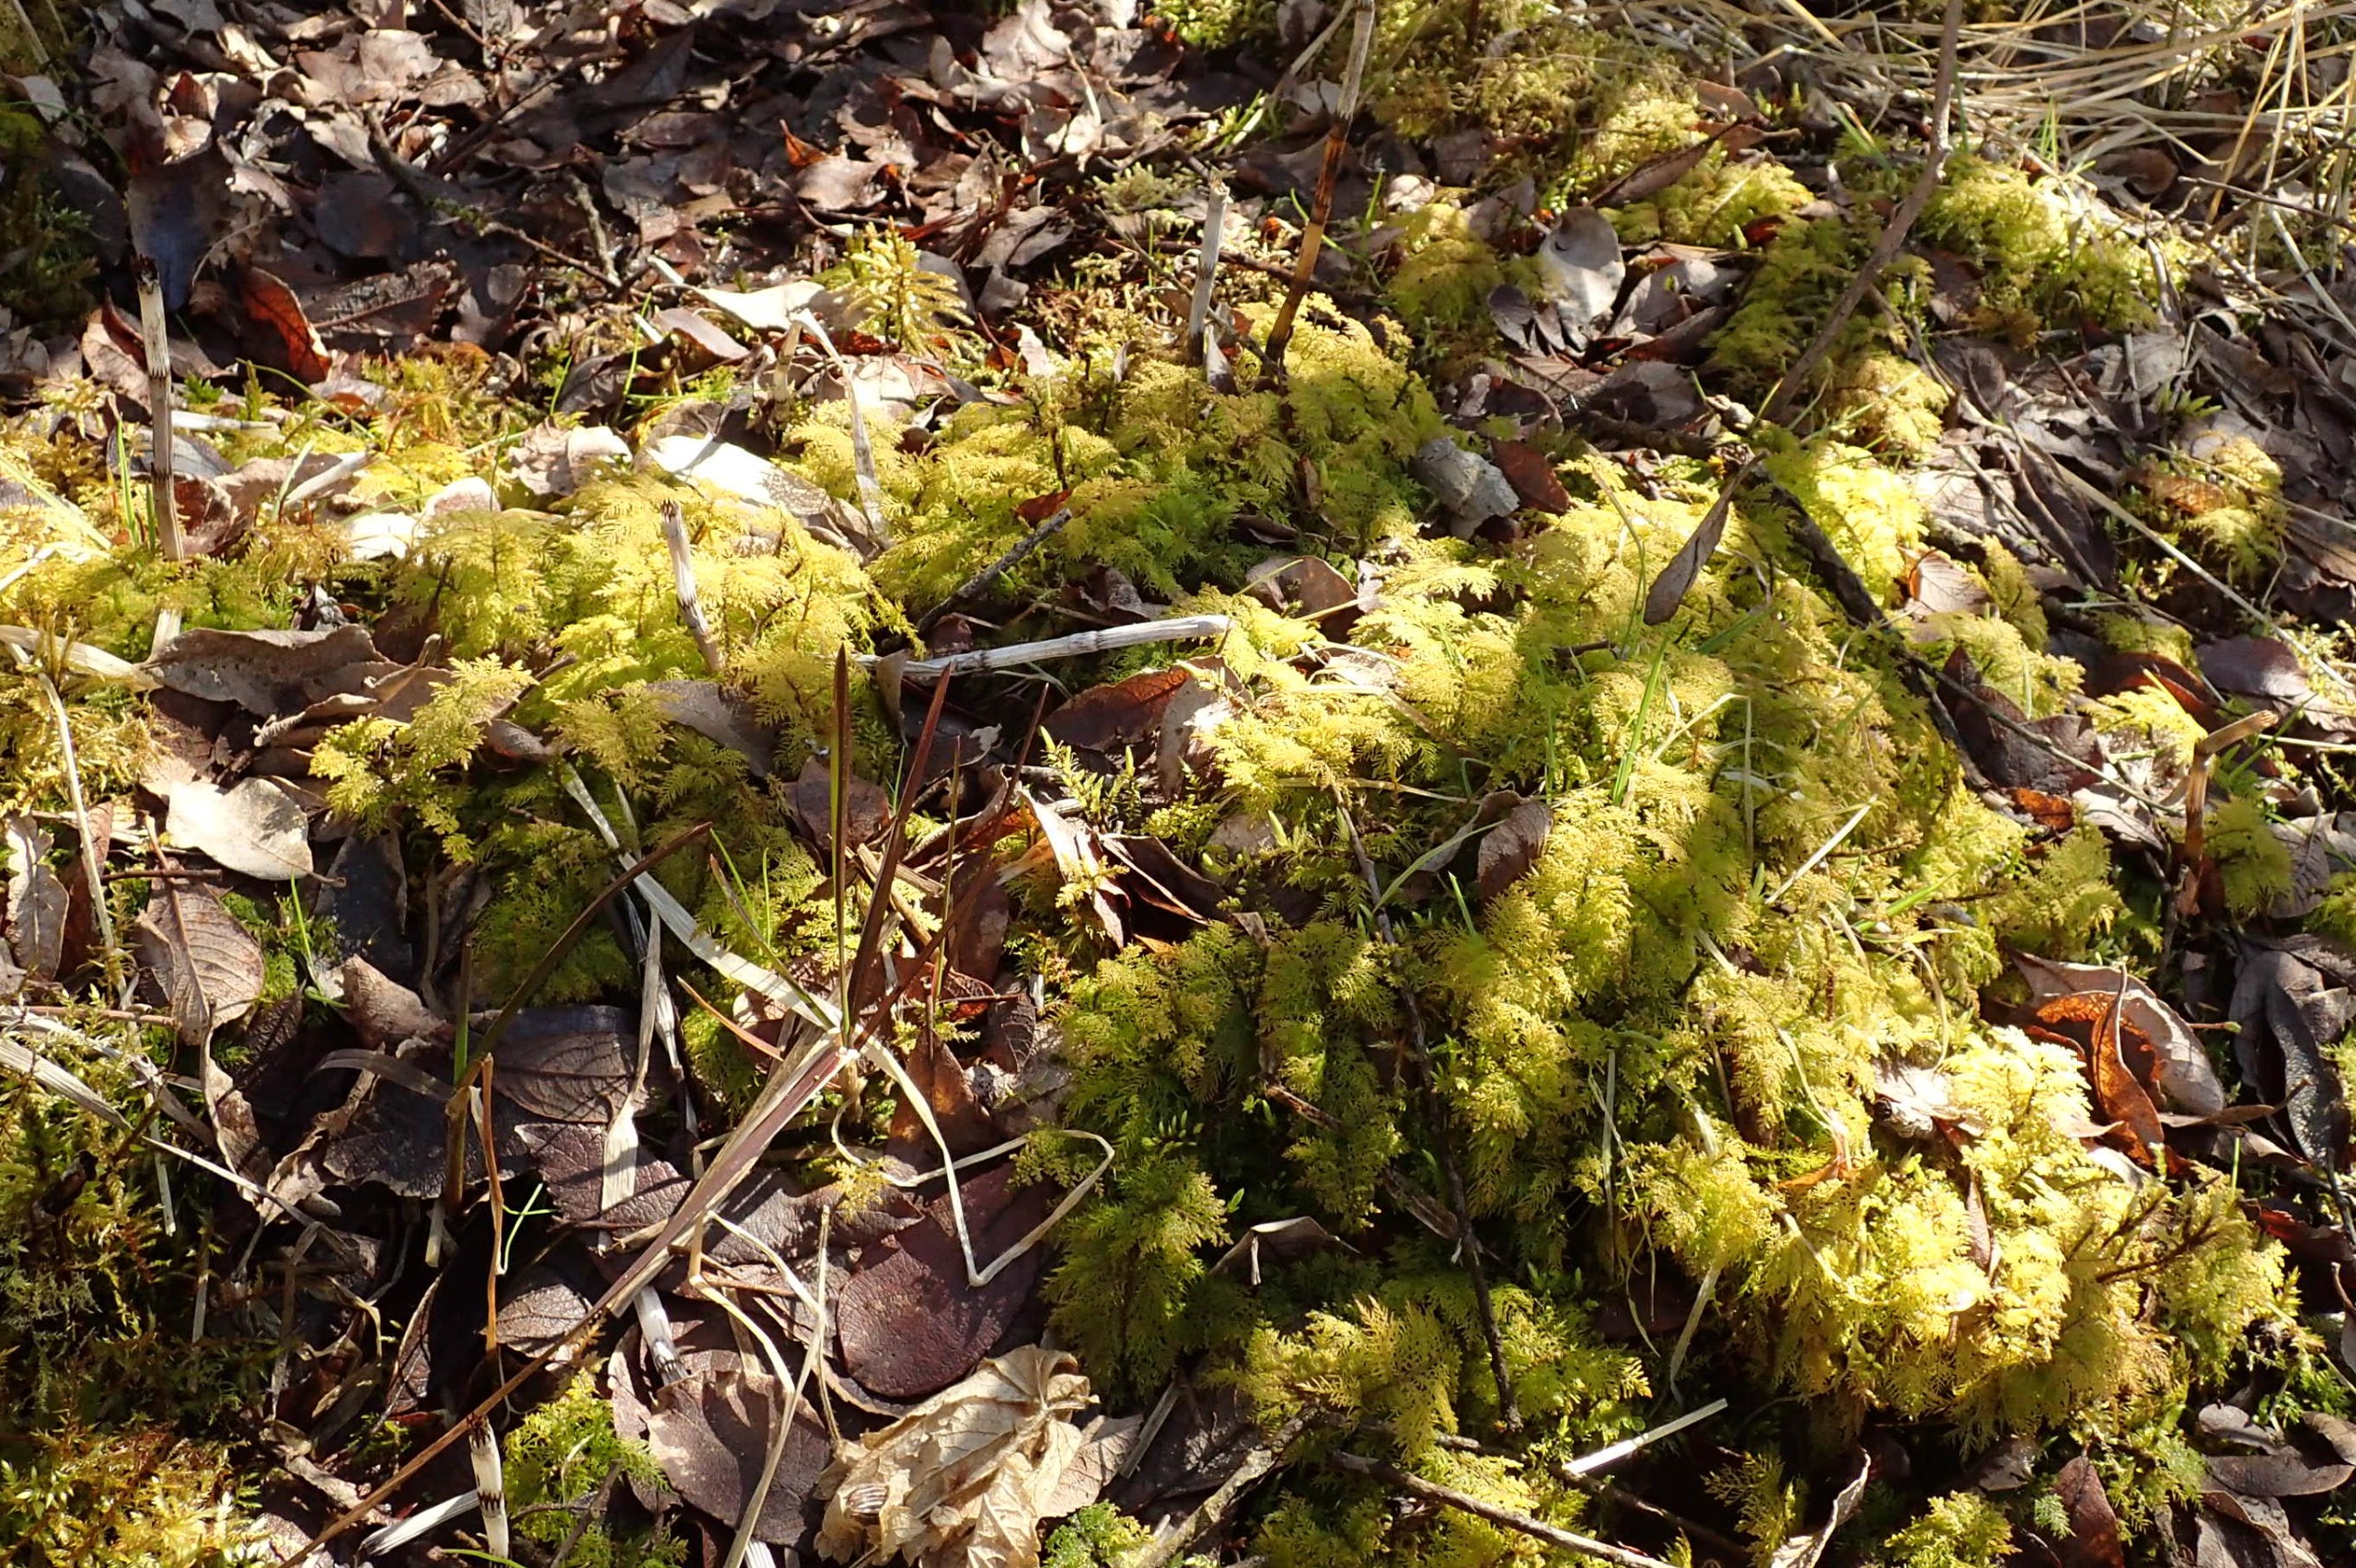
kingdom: Plantae
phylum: Bryophyta
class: Bryopsida
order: Hypnales
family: Hylocomiaceae
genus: Hylocomium
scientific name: Hylocomium splendens
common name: Almindelig etagemos
